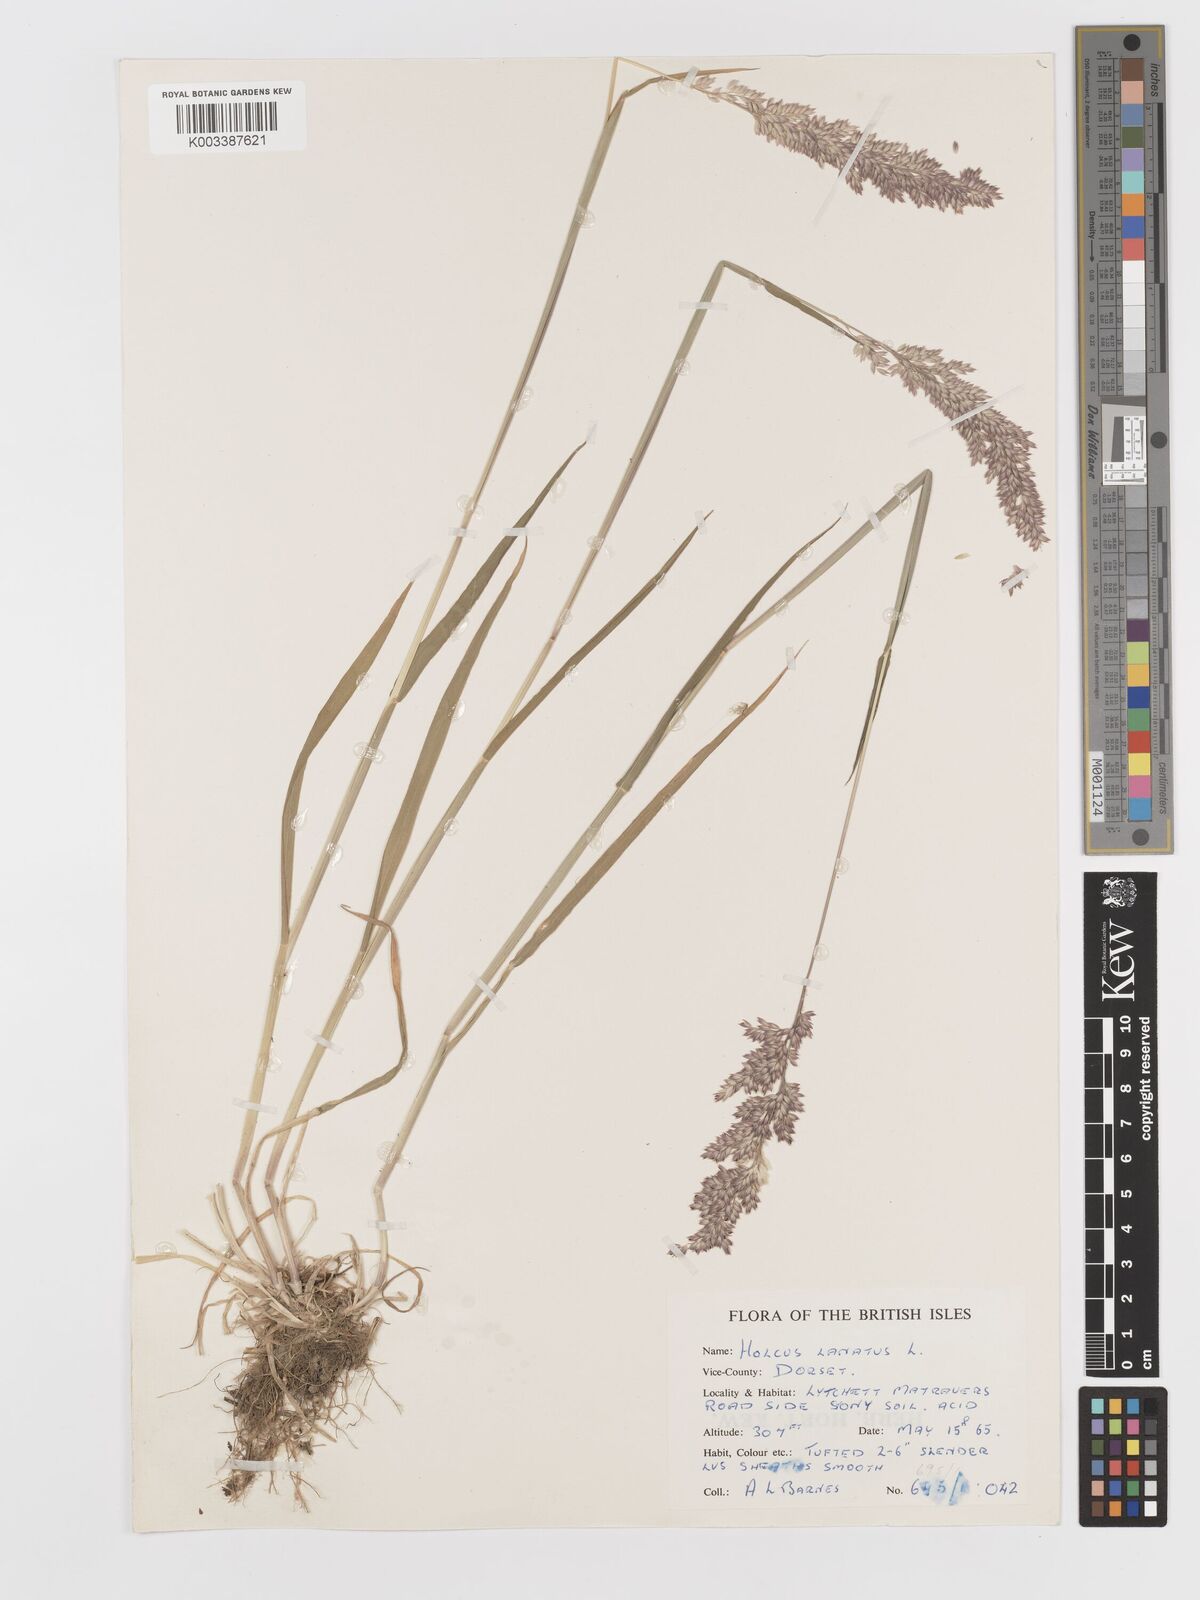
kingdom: Plantae
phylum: Tracheophyta
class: Liliopsida
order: Poales
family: Poaceae
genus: Holcus
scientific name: Holcus lanatus
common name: Yorkshire-fog
